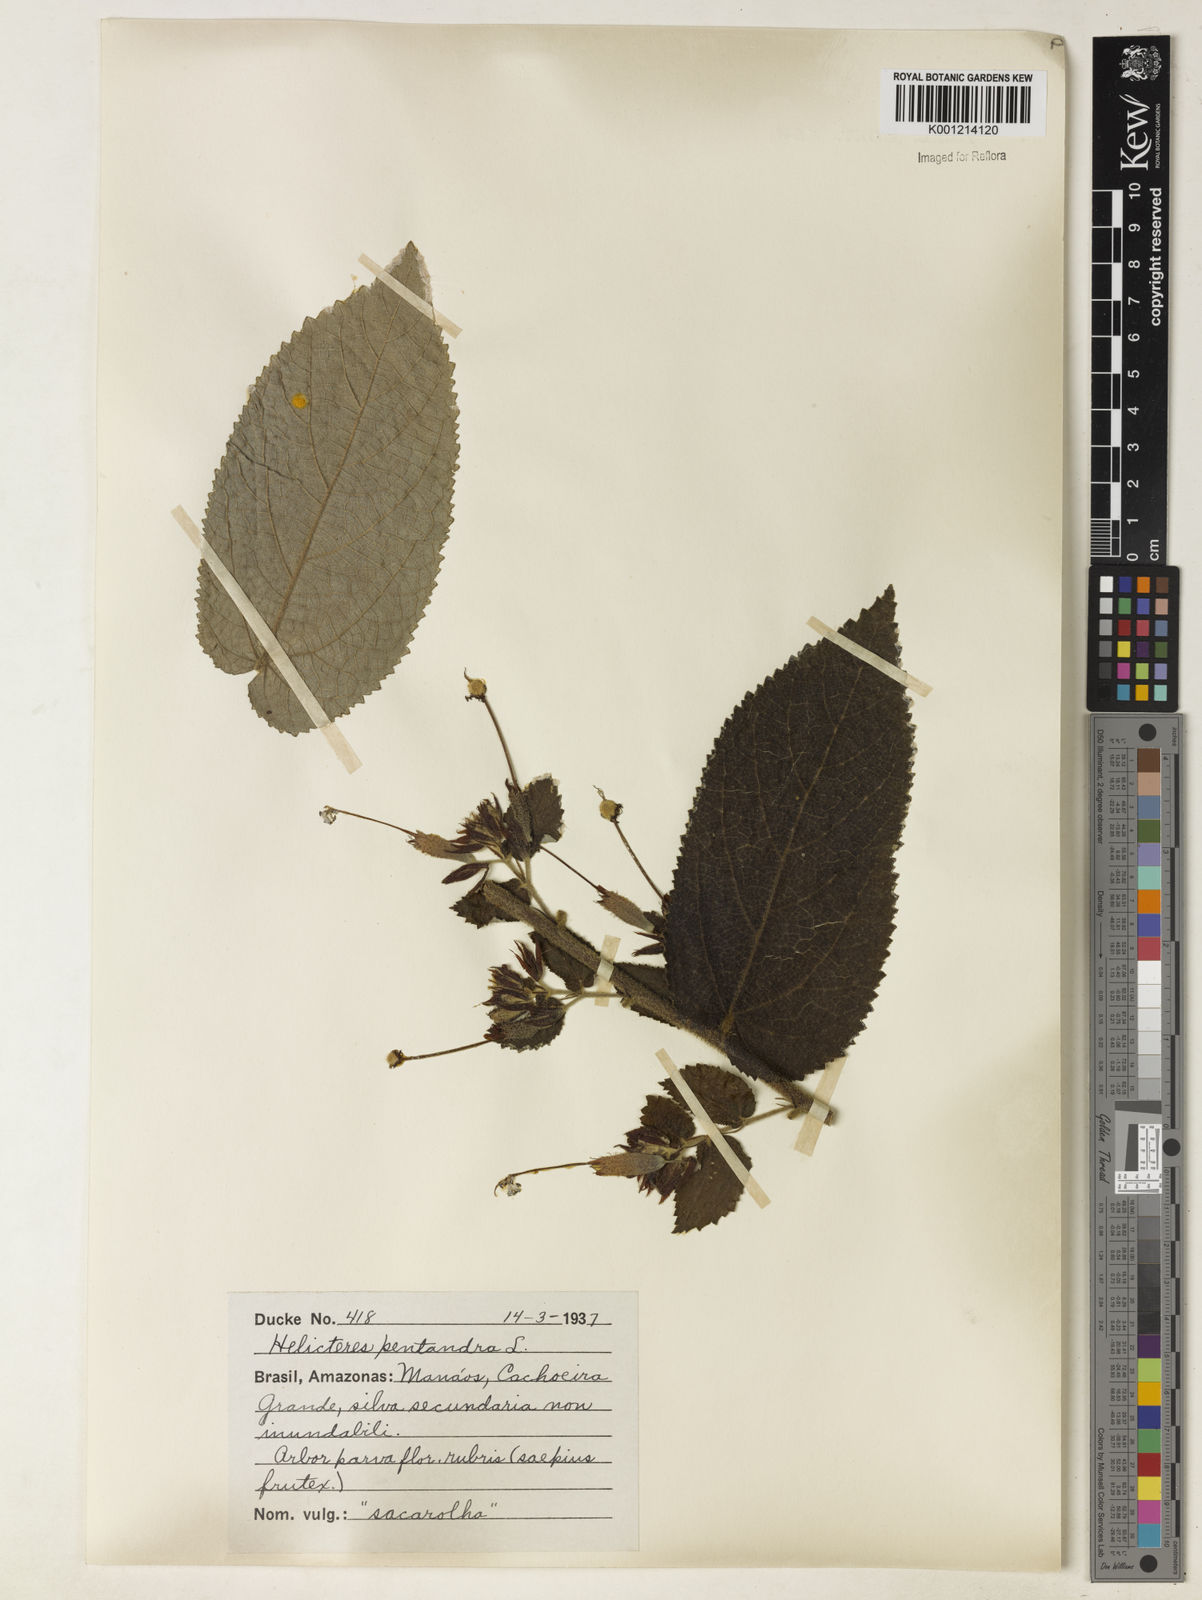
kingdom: Plantae
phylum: Tracheophyta
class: Magnoliopsida
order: Malvales
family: Malvaceae
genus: Helicteres
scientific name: Helicteres pentandra
